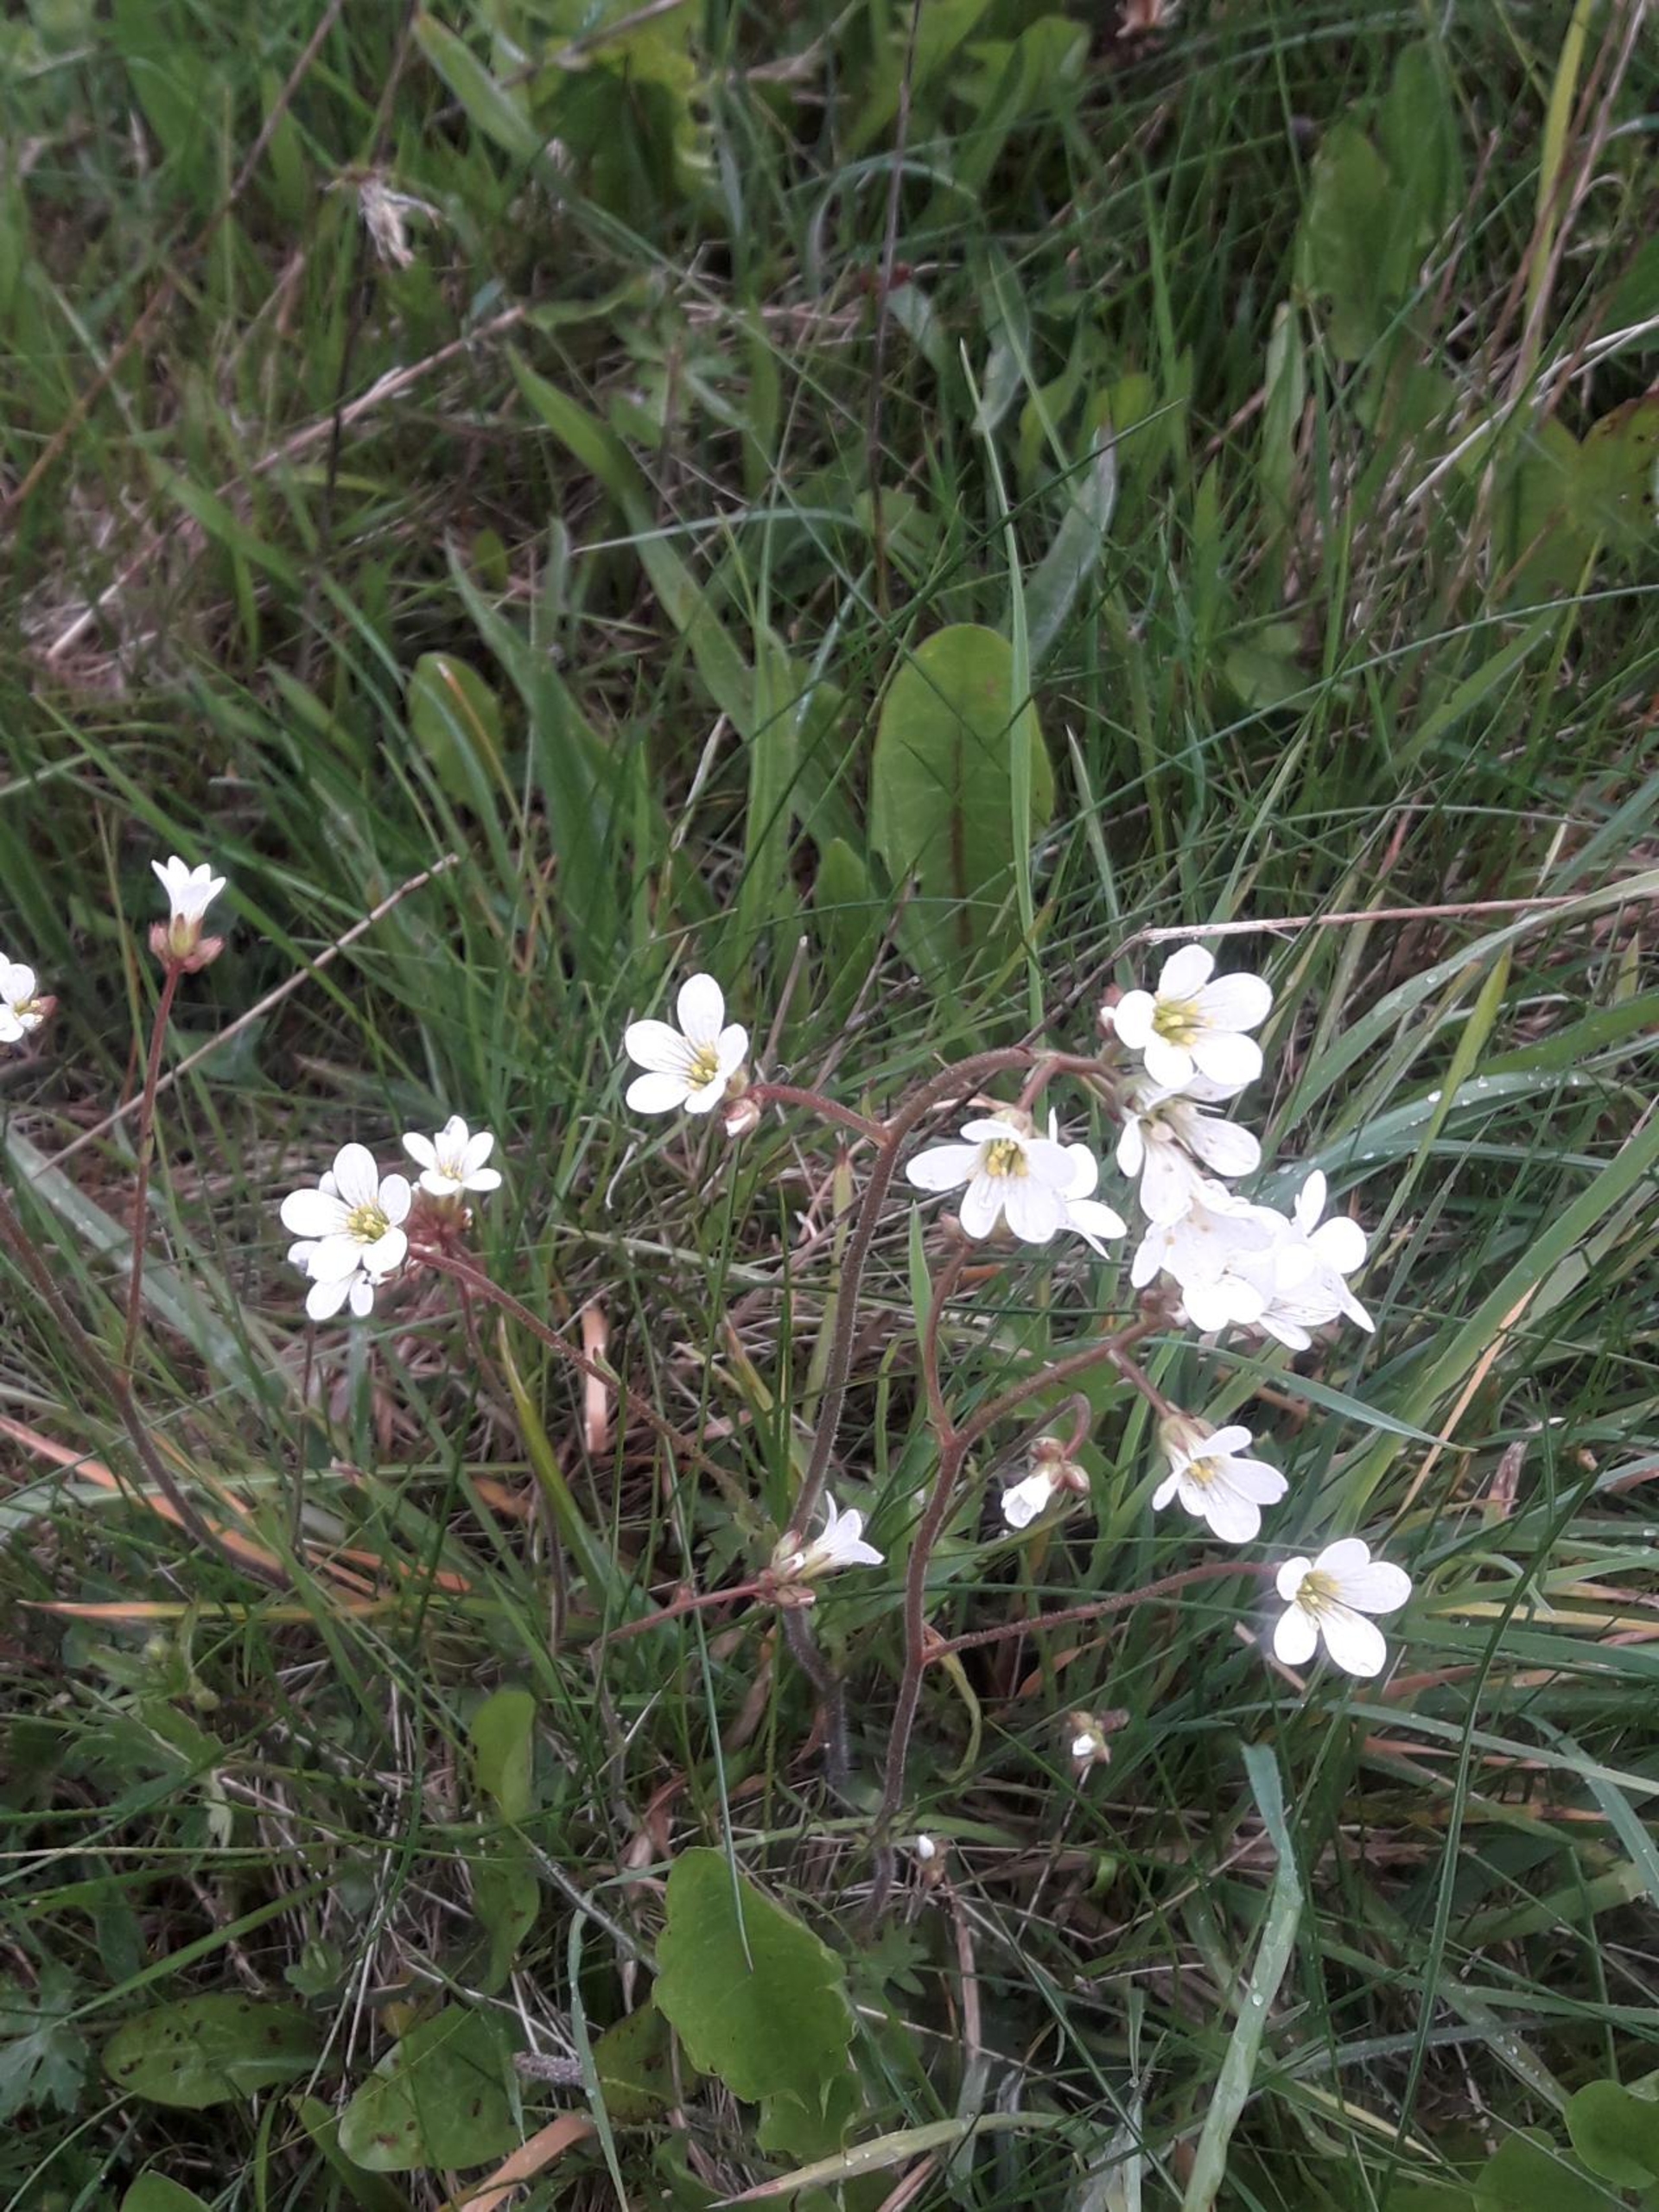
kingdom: Plantae
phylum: Tracheophyta
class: Magnoliopsida
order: Saxifragales
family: Saxifragaceae
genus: Saxifraga
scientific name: Saxifraga granulata
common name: Kornet stenbræk
